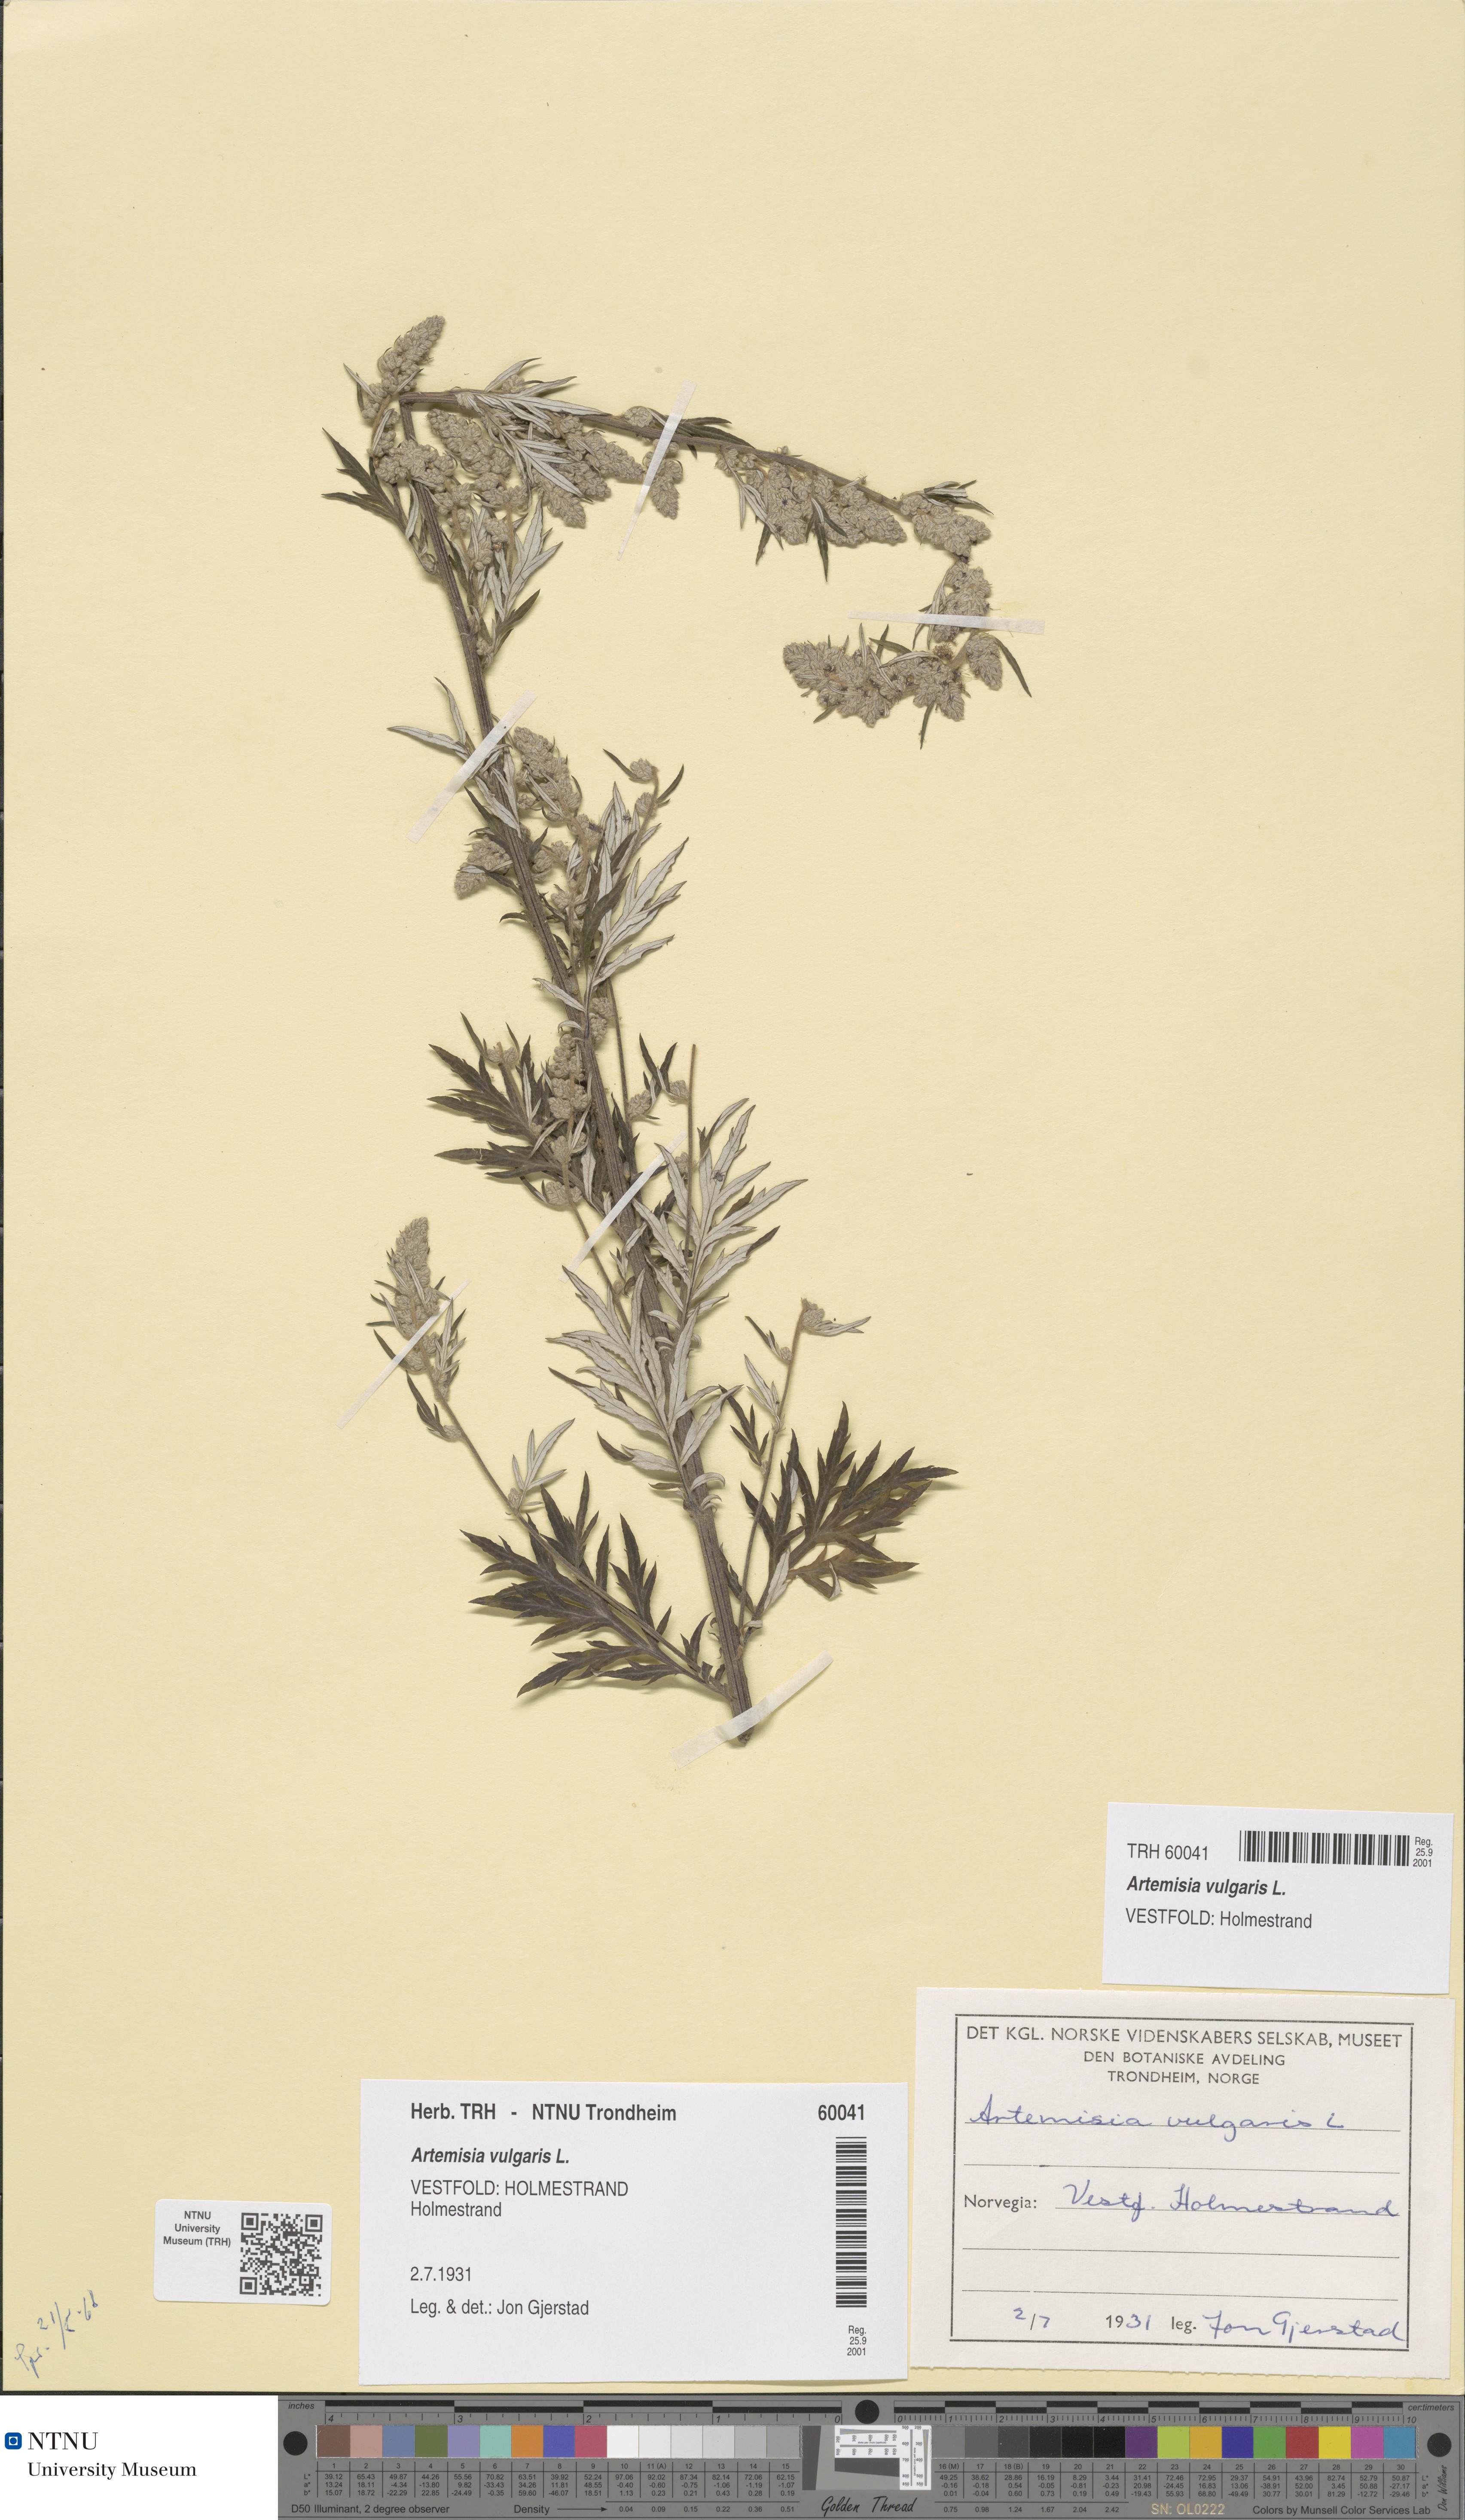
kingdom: Plantae
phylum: Tracheophyta
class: Magnoliopsida
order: Asterales
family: Asteraceae
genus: Artemisia
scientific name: Artemisia vulgaris
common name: Mugwort
